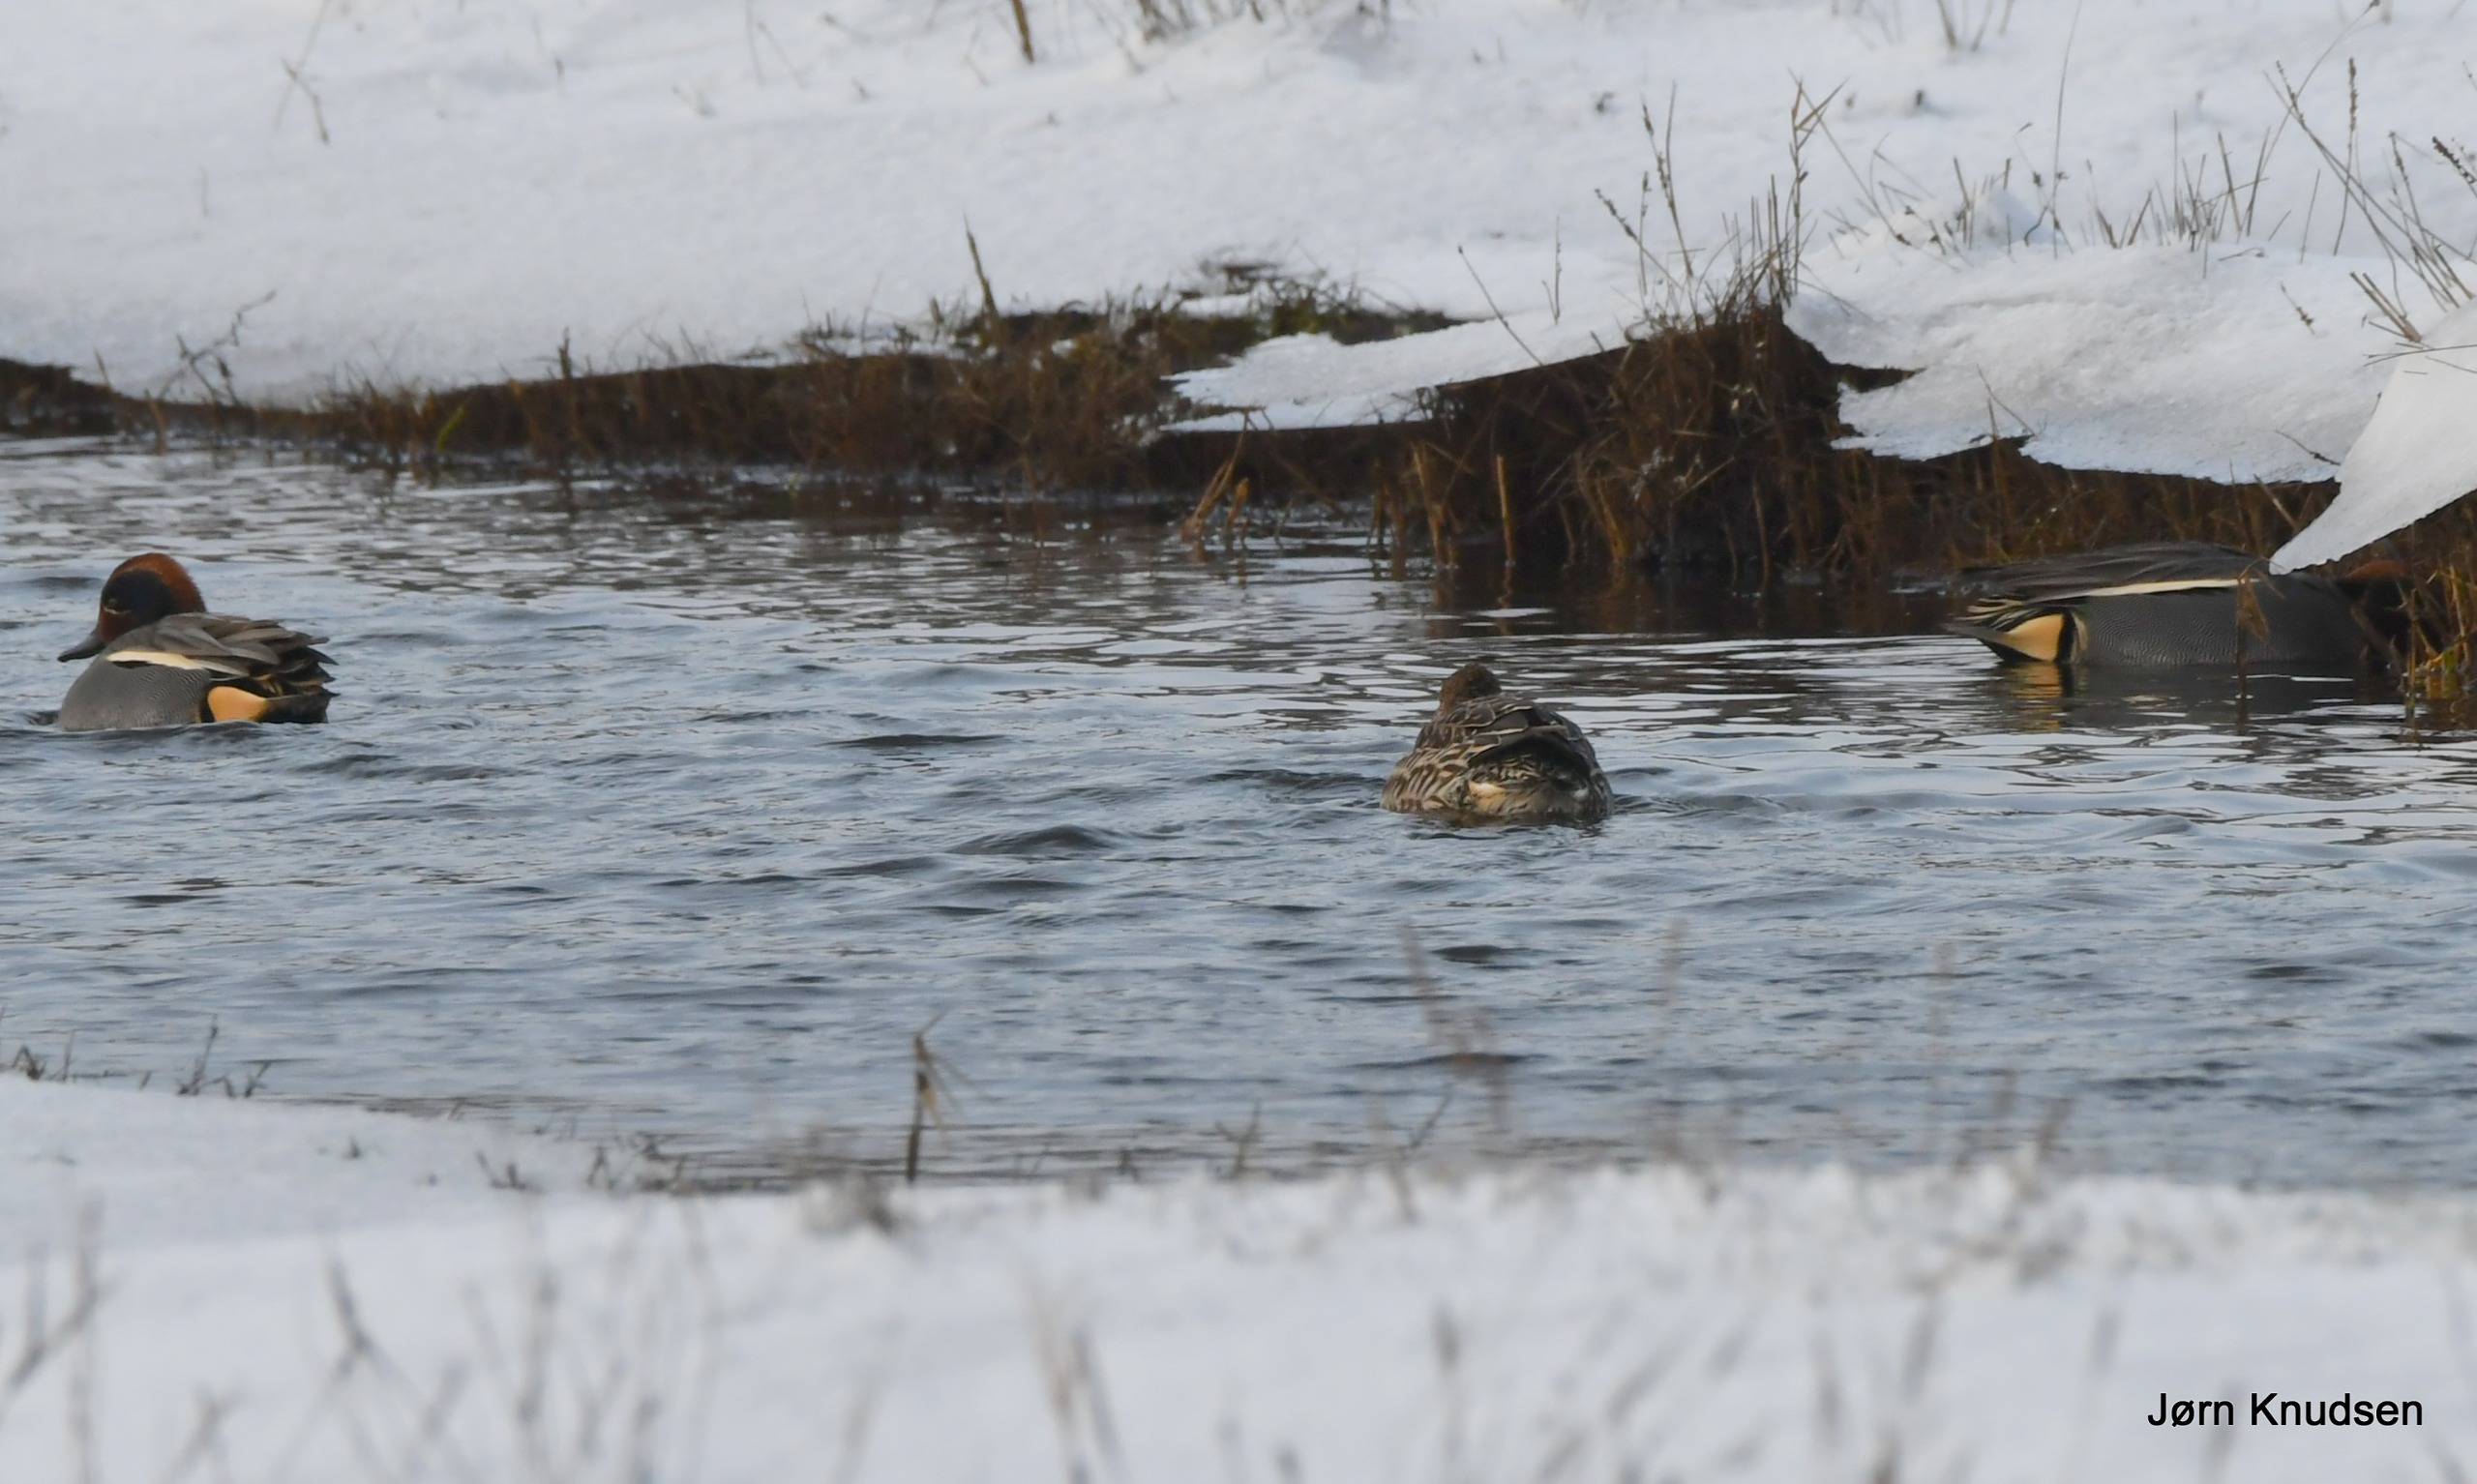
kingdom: Animalia
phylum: Chordata
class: Aves
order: Anseriformes
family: Anatidae
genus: Anas
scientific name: Anas crecca
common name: Krikand
